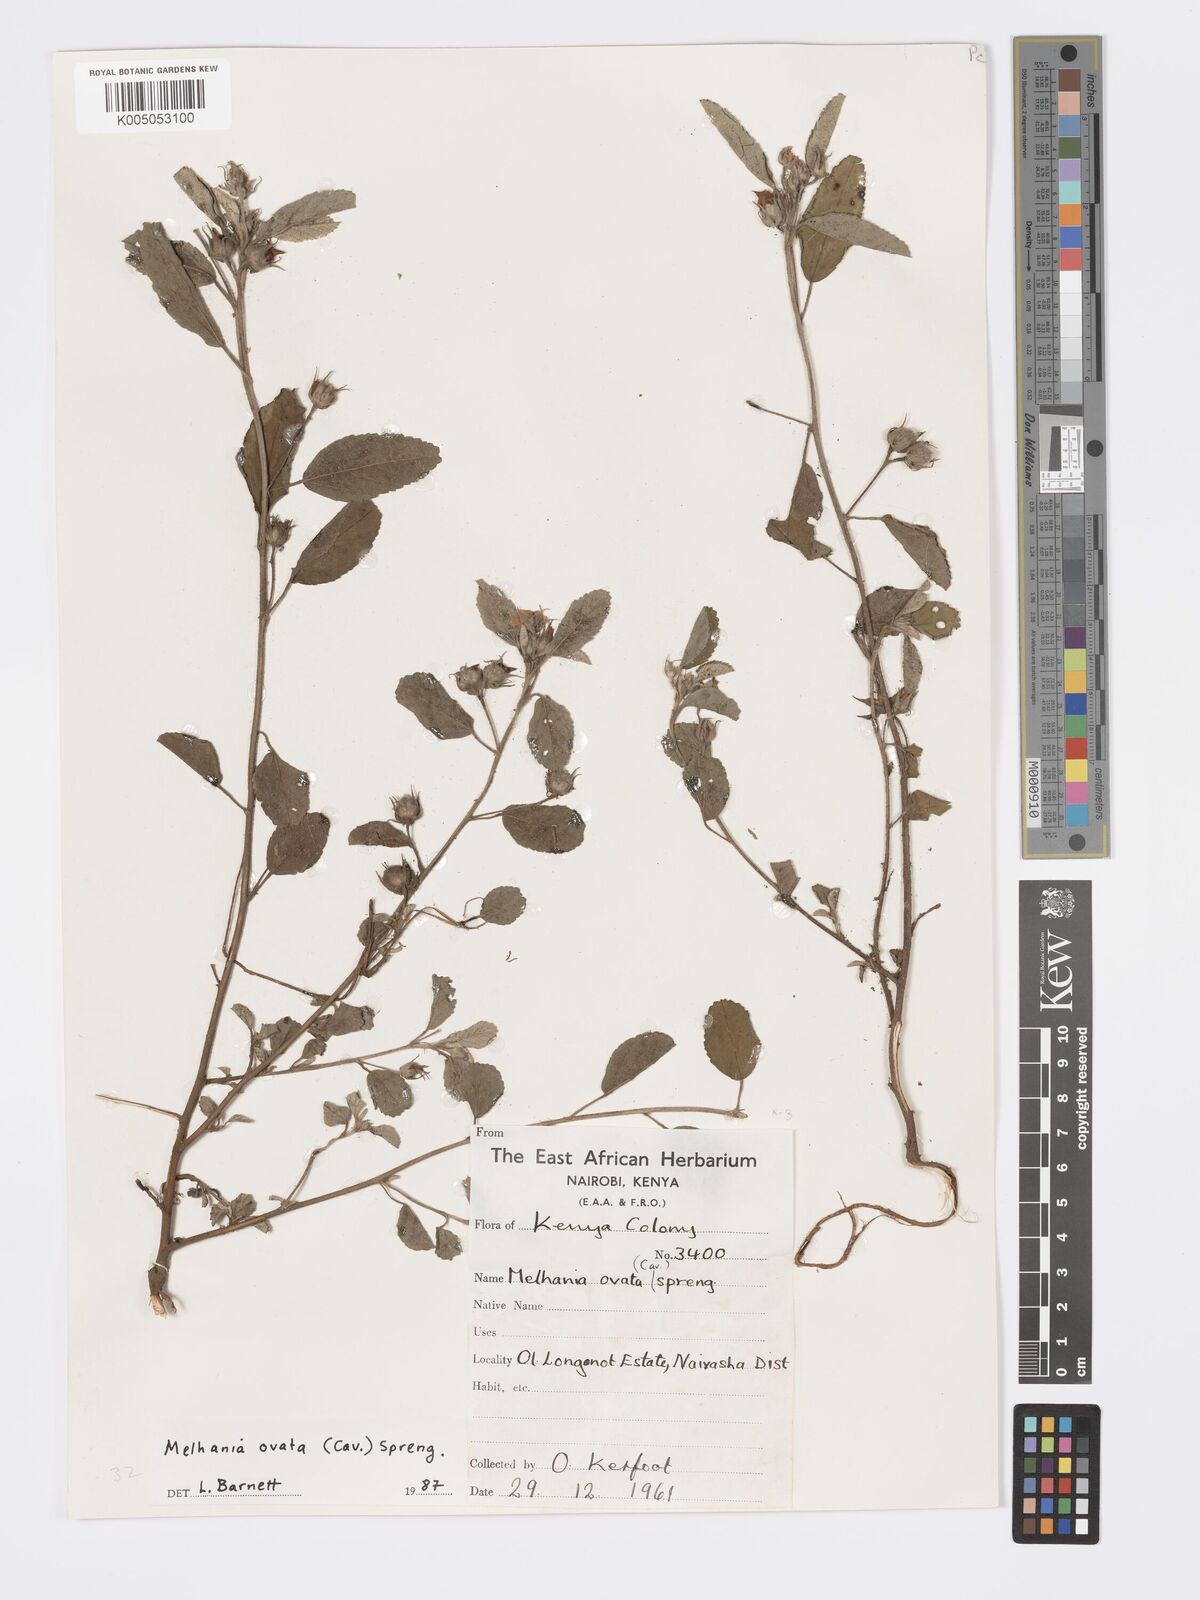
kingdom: Plantae
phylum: Tracheophyta
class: Magnoliopsida
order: Malvales
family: Malvaceae
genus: Melhania
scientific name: Melhania ovata
